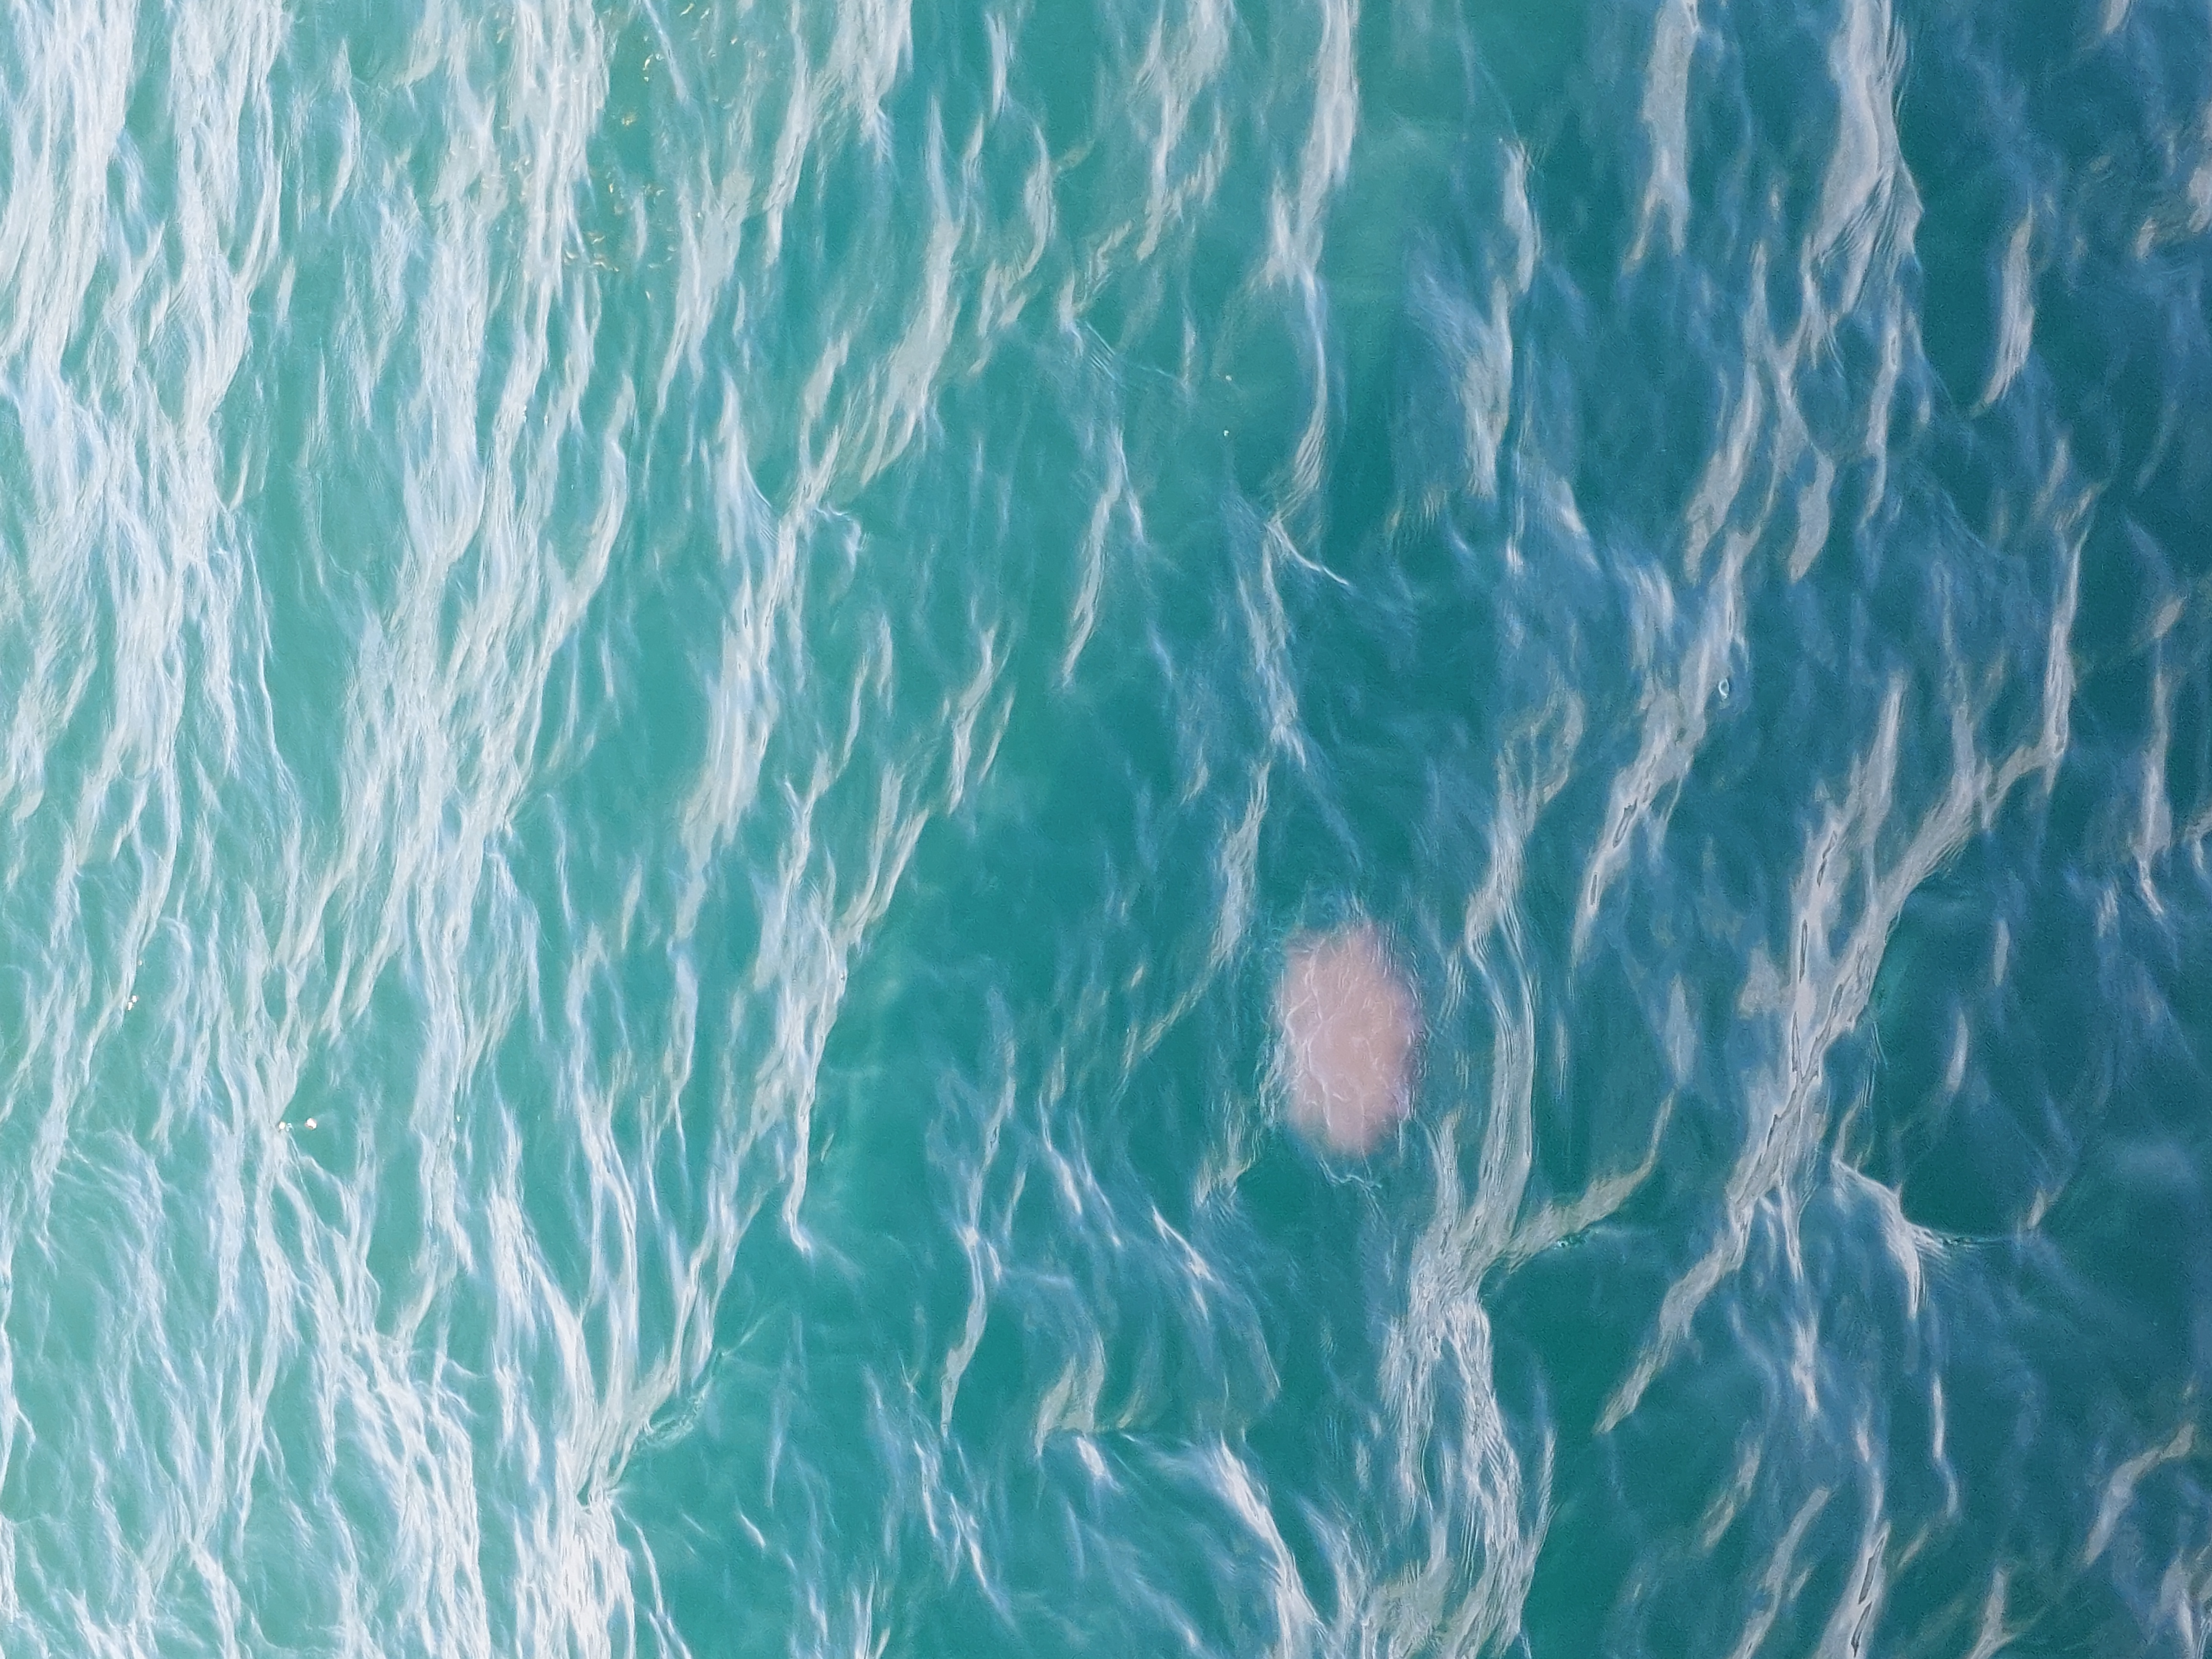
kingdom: Animalia
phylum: Cnidaria
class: Scyphozoa
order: Semaeostomeae
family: Cyaneidae
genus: Cyanea
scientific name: Cyanea nozakii
